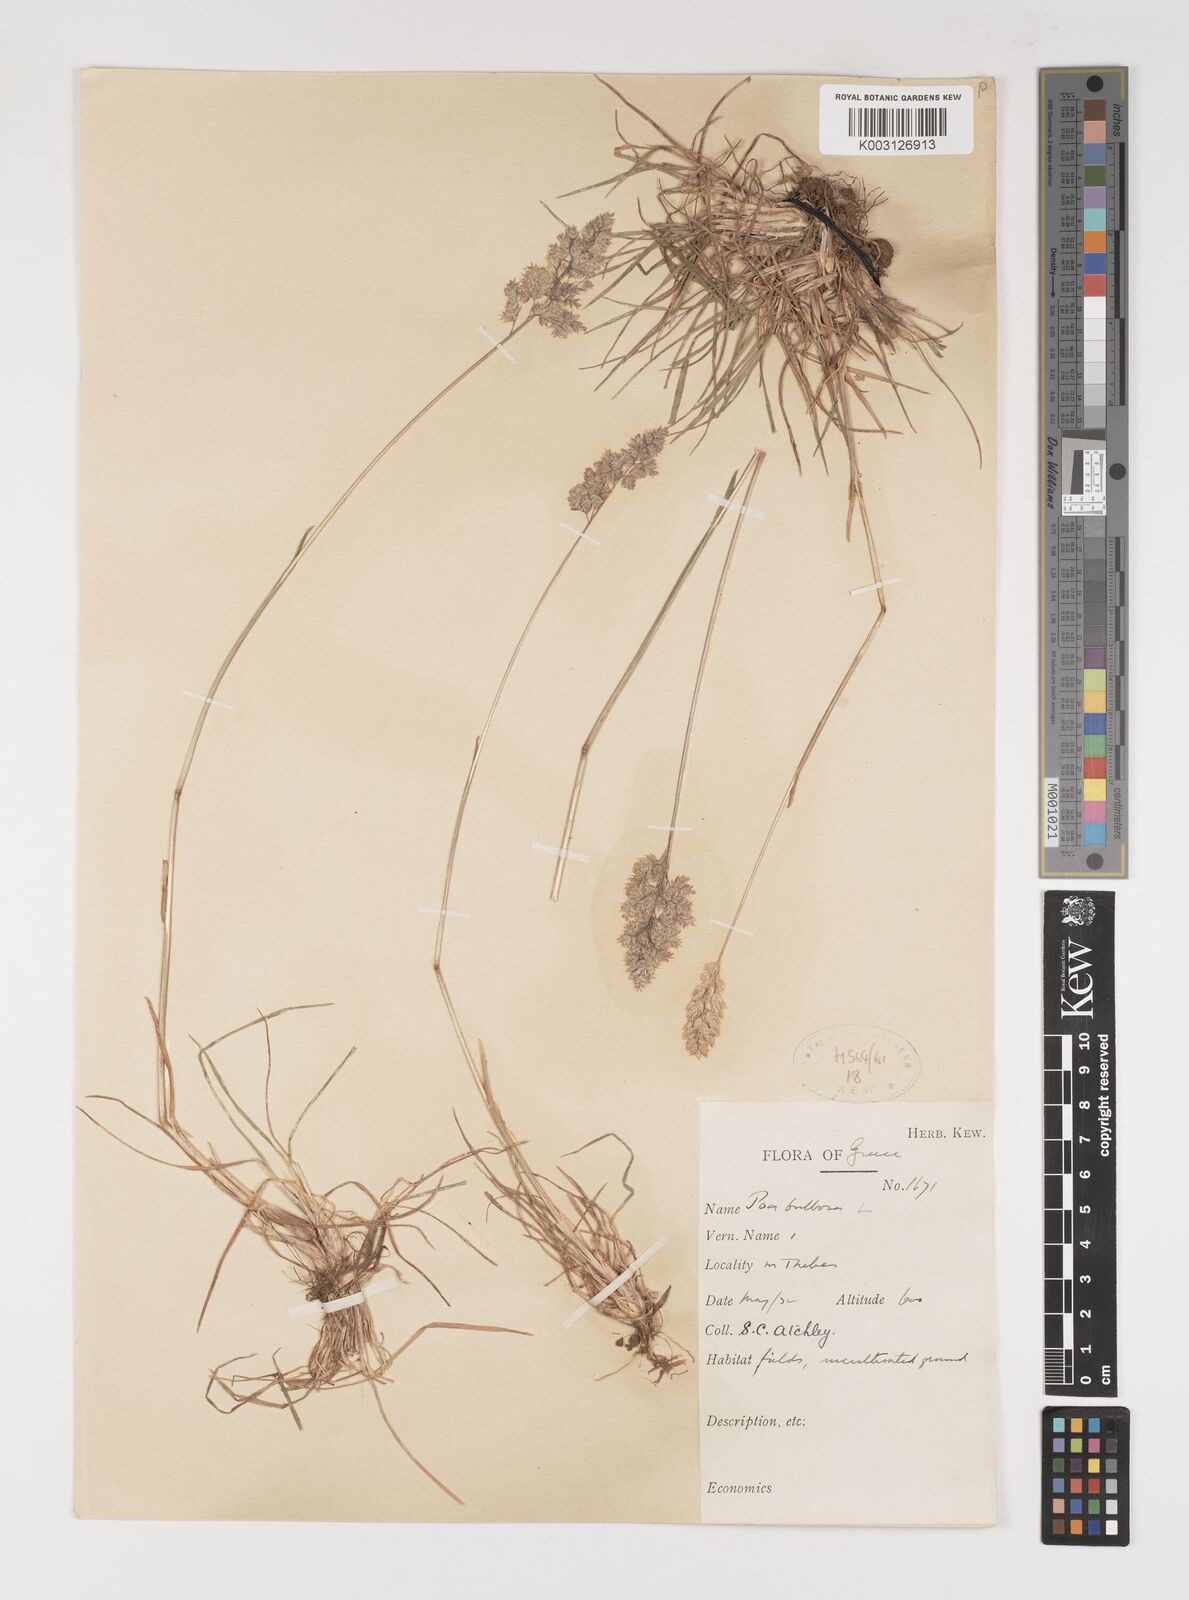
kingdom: Plantae
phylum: Tracheophyta
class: Liliopsida
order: Poales
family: Poaceae
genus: Poa
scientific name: Poa bulbosa
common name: Bulbous bluegrass
